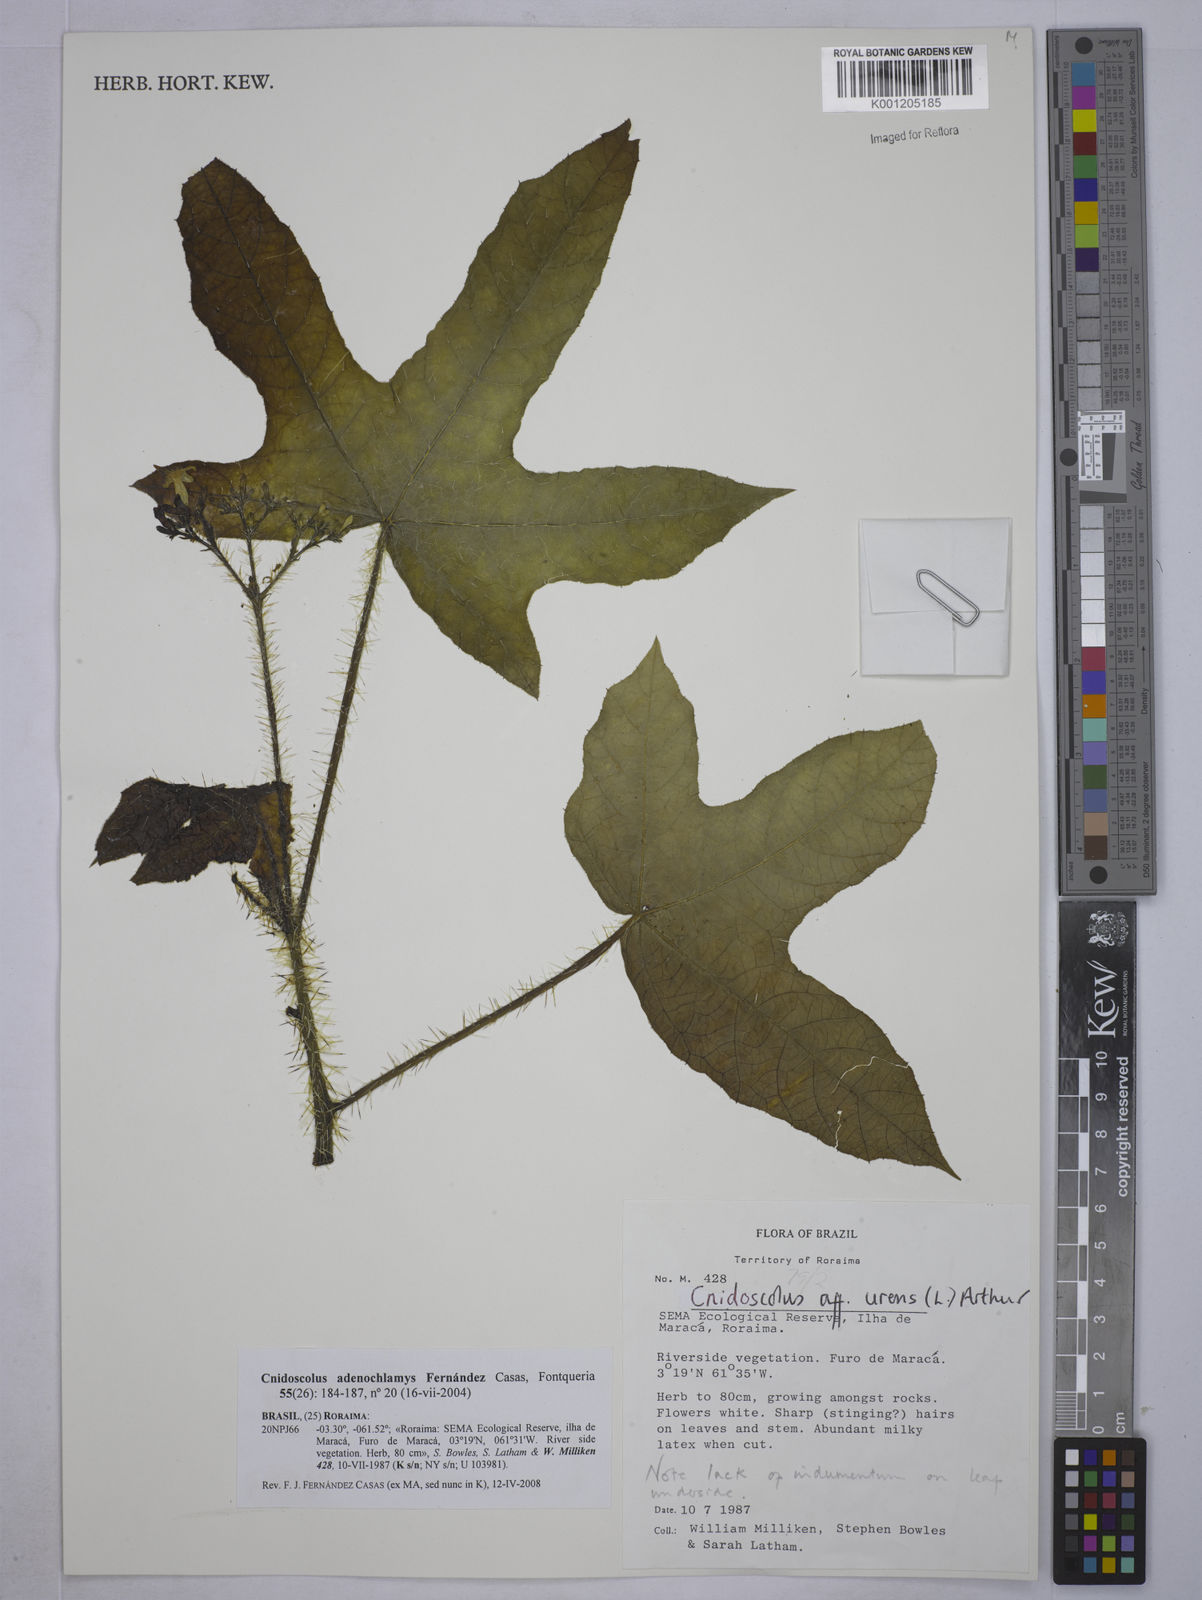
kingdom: Plantae
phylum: Tracheophyta
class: Magnoliopsida
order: Malpighiales
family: Euphorbiaceae
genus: Cnidoscolus
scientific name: Cnidoscolus adenochlamys
